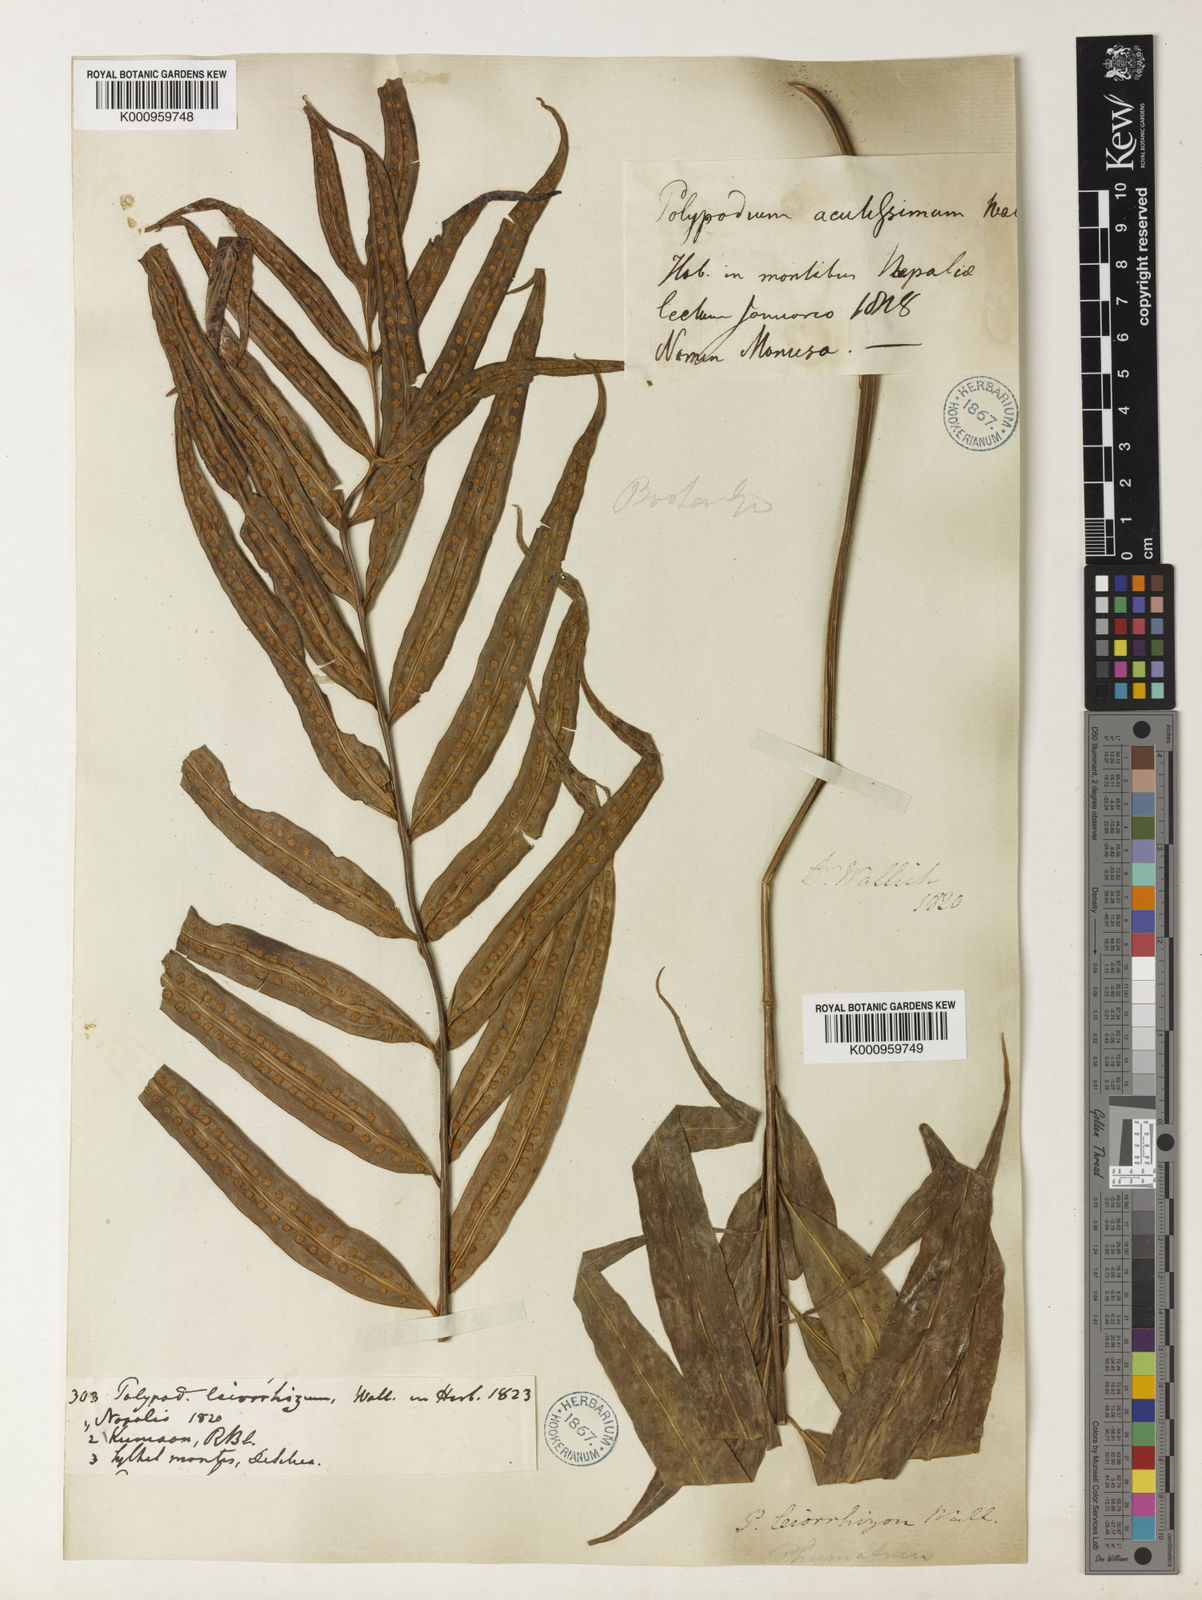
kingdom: Plantae
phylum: Tracheophyta
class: Polypodiopsida
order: Polypodiales
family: Polypodiaceae
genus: Microsorum
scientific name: Microsorum cuspidatum
